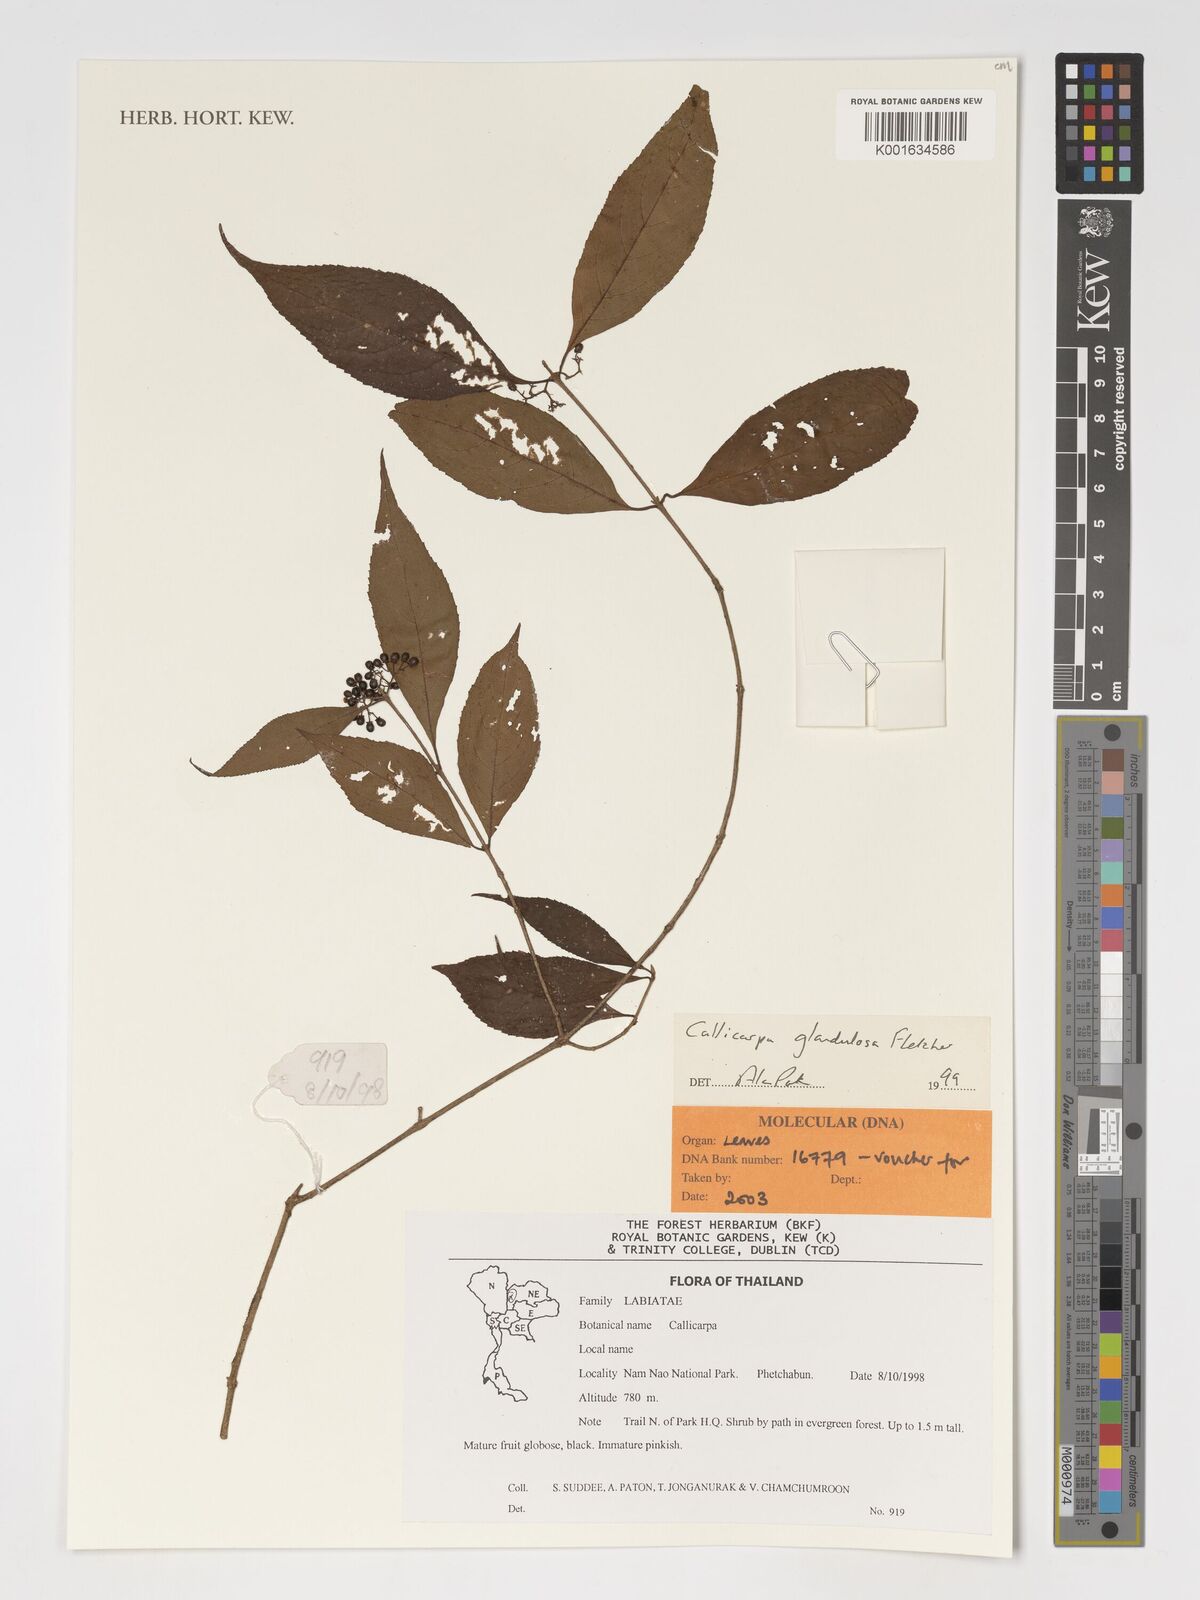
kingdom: Plantae
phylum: Tracheophyta
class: Magnoliopsida
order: Lamiales
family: Lamiaceae
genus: Callicarpa
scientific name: Callicarpa bodinieri
